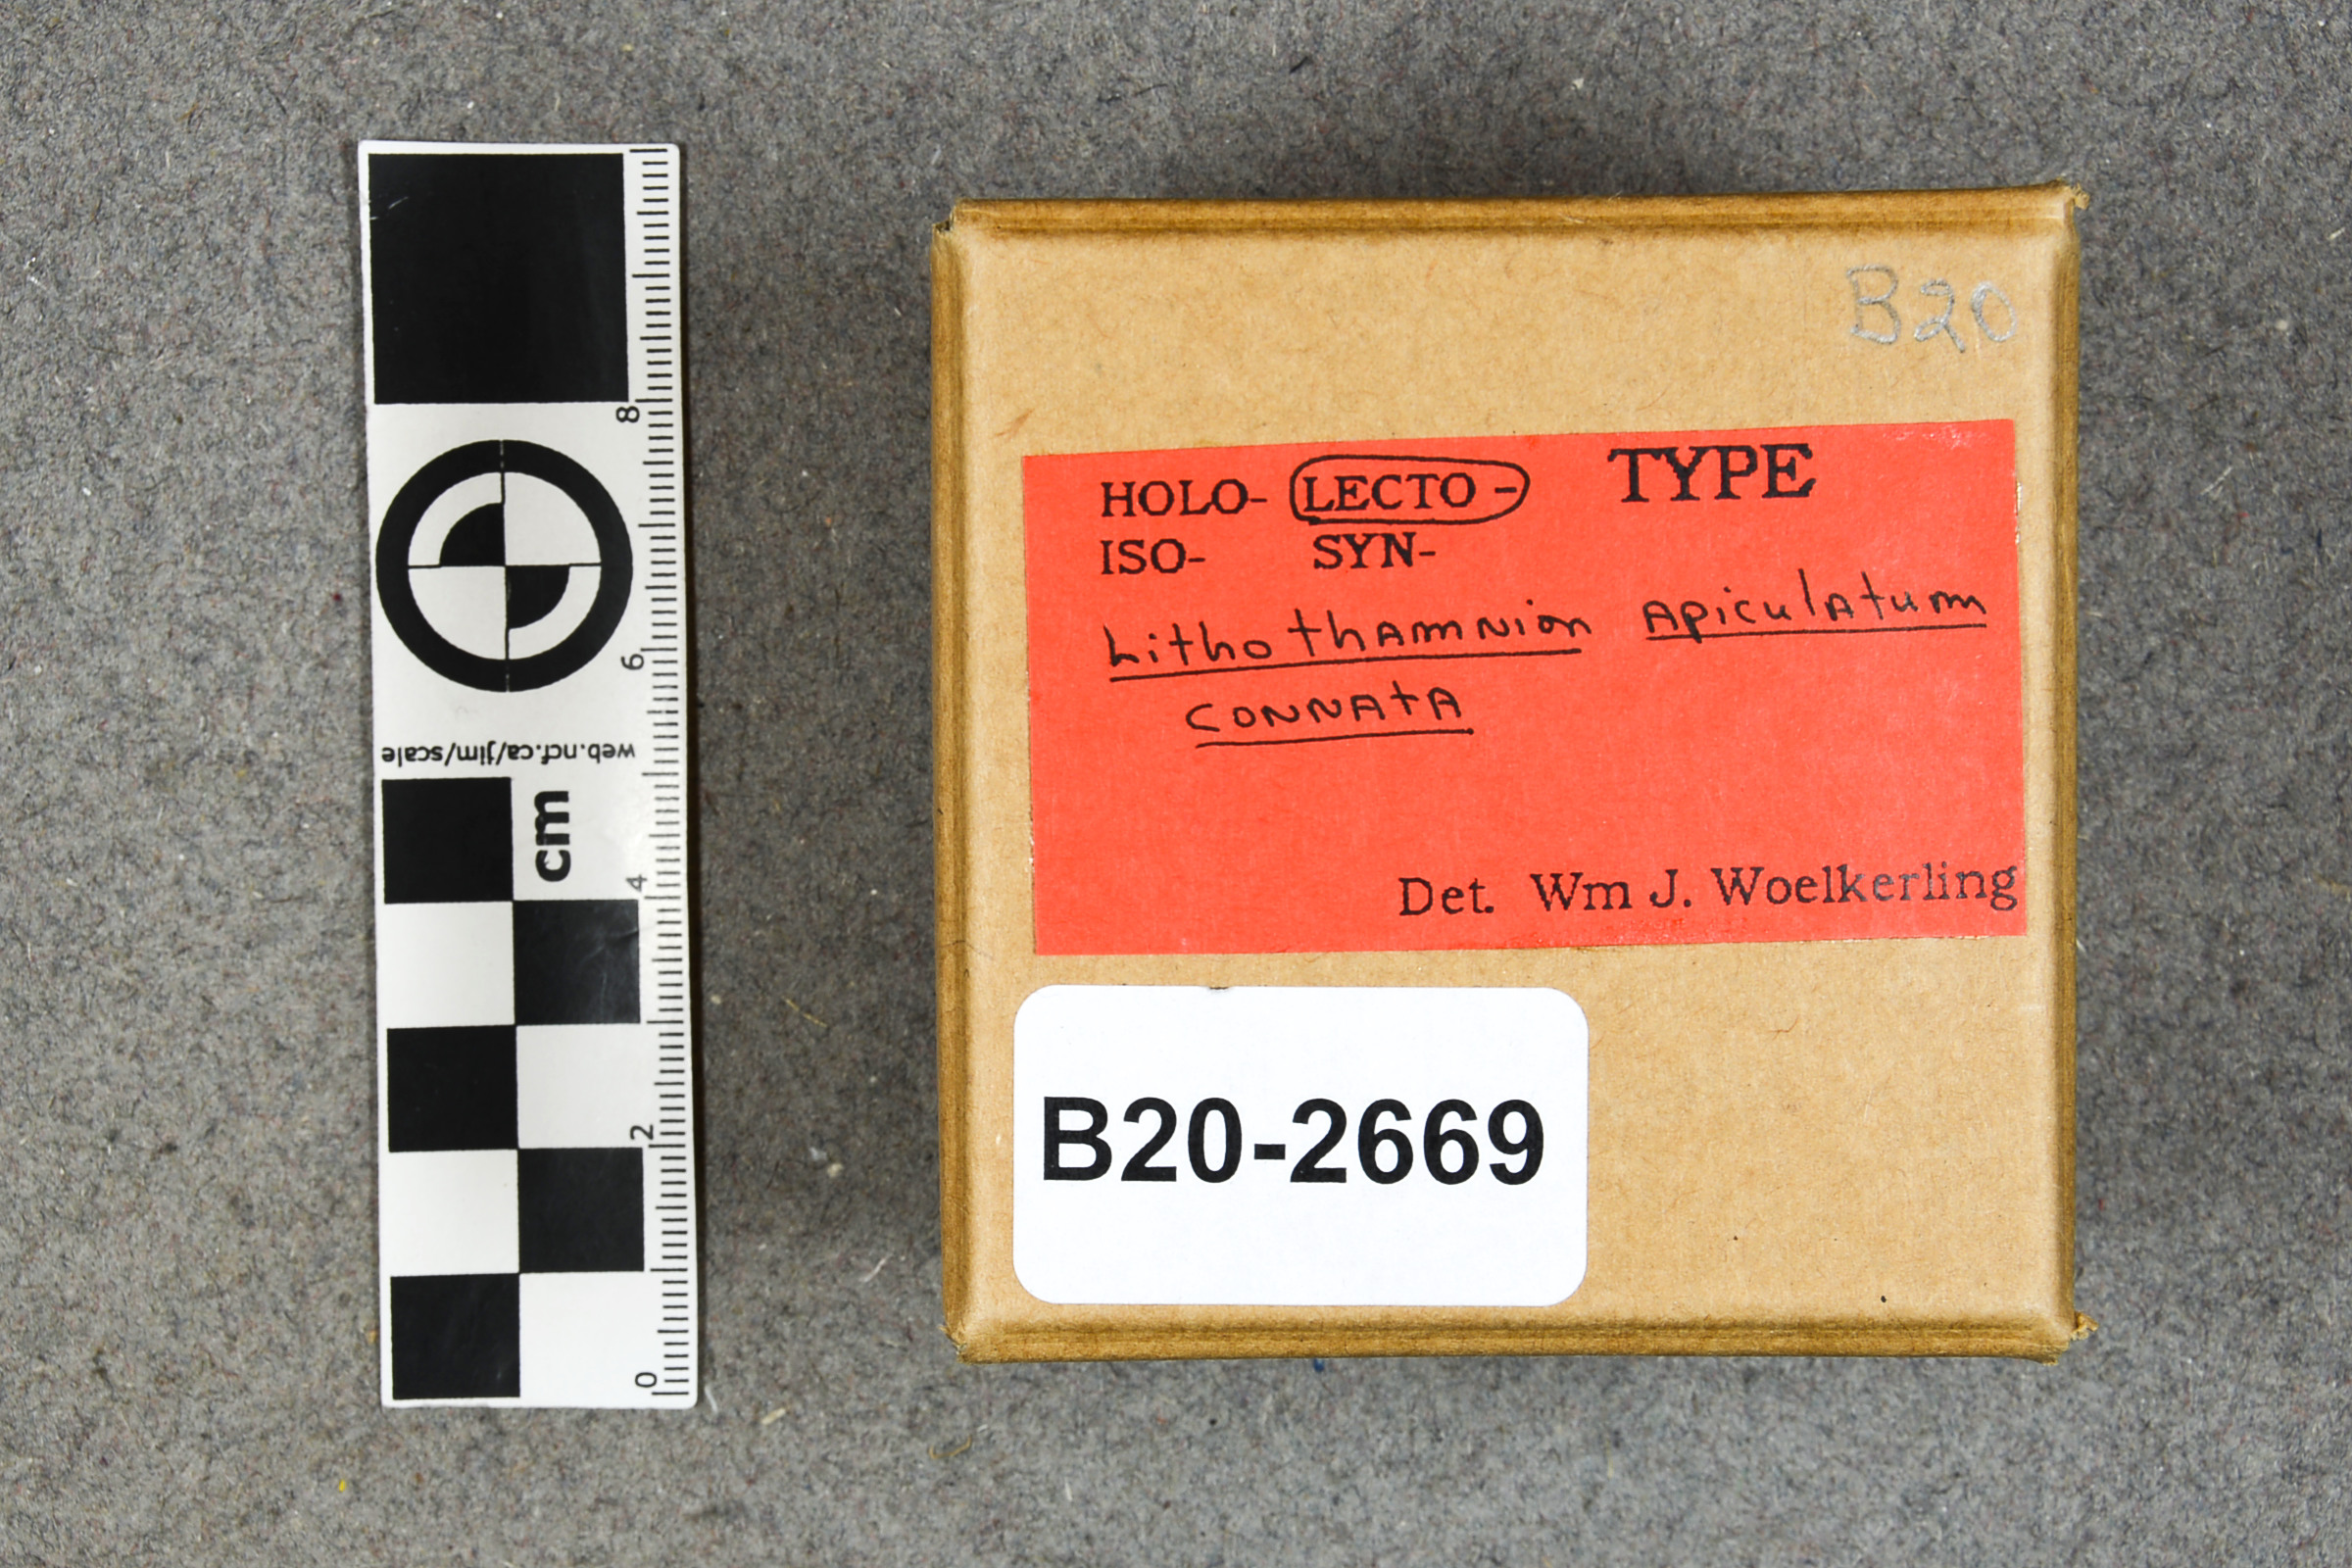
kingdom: Plantae
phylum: Rhodophyta
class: Florideophyceae
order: Corallinales
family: Hapalidiaceae
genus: Lithothamnion
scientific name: Lithothamnion apiculatum
